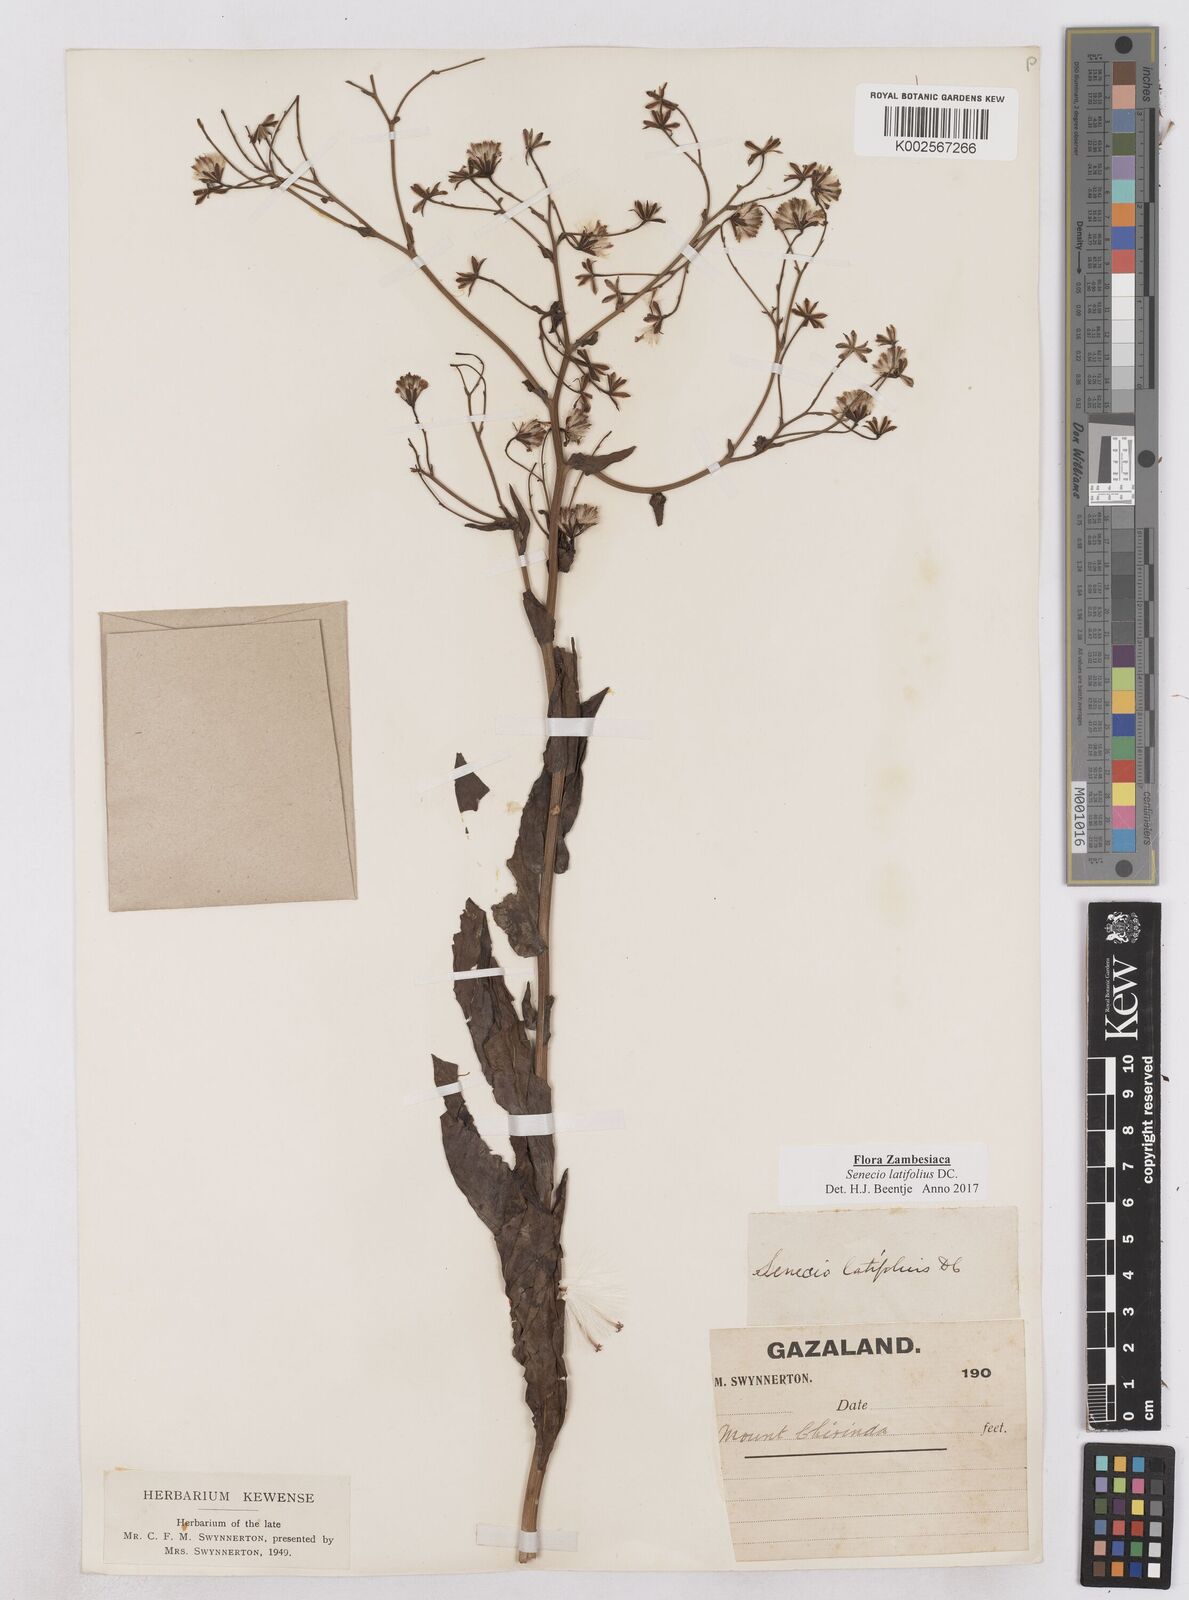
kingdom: Plantae
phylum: Tracheophyta
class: Magnoliopsida
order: Asterales
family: Asteraceae
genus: Senecio
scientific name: Senecio latifolius
